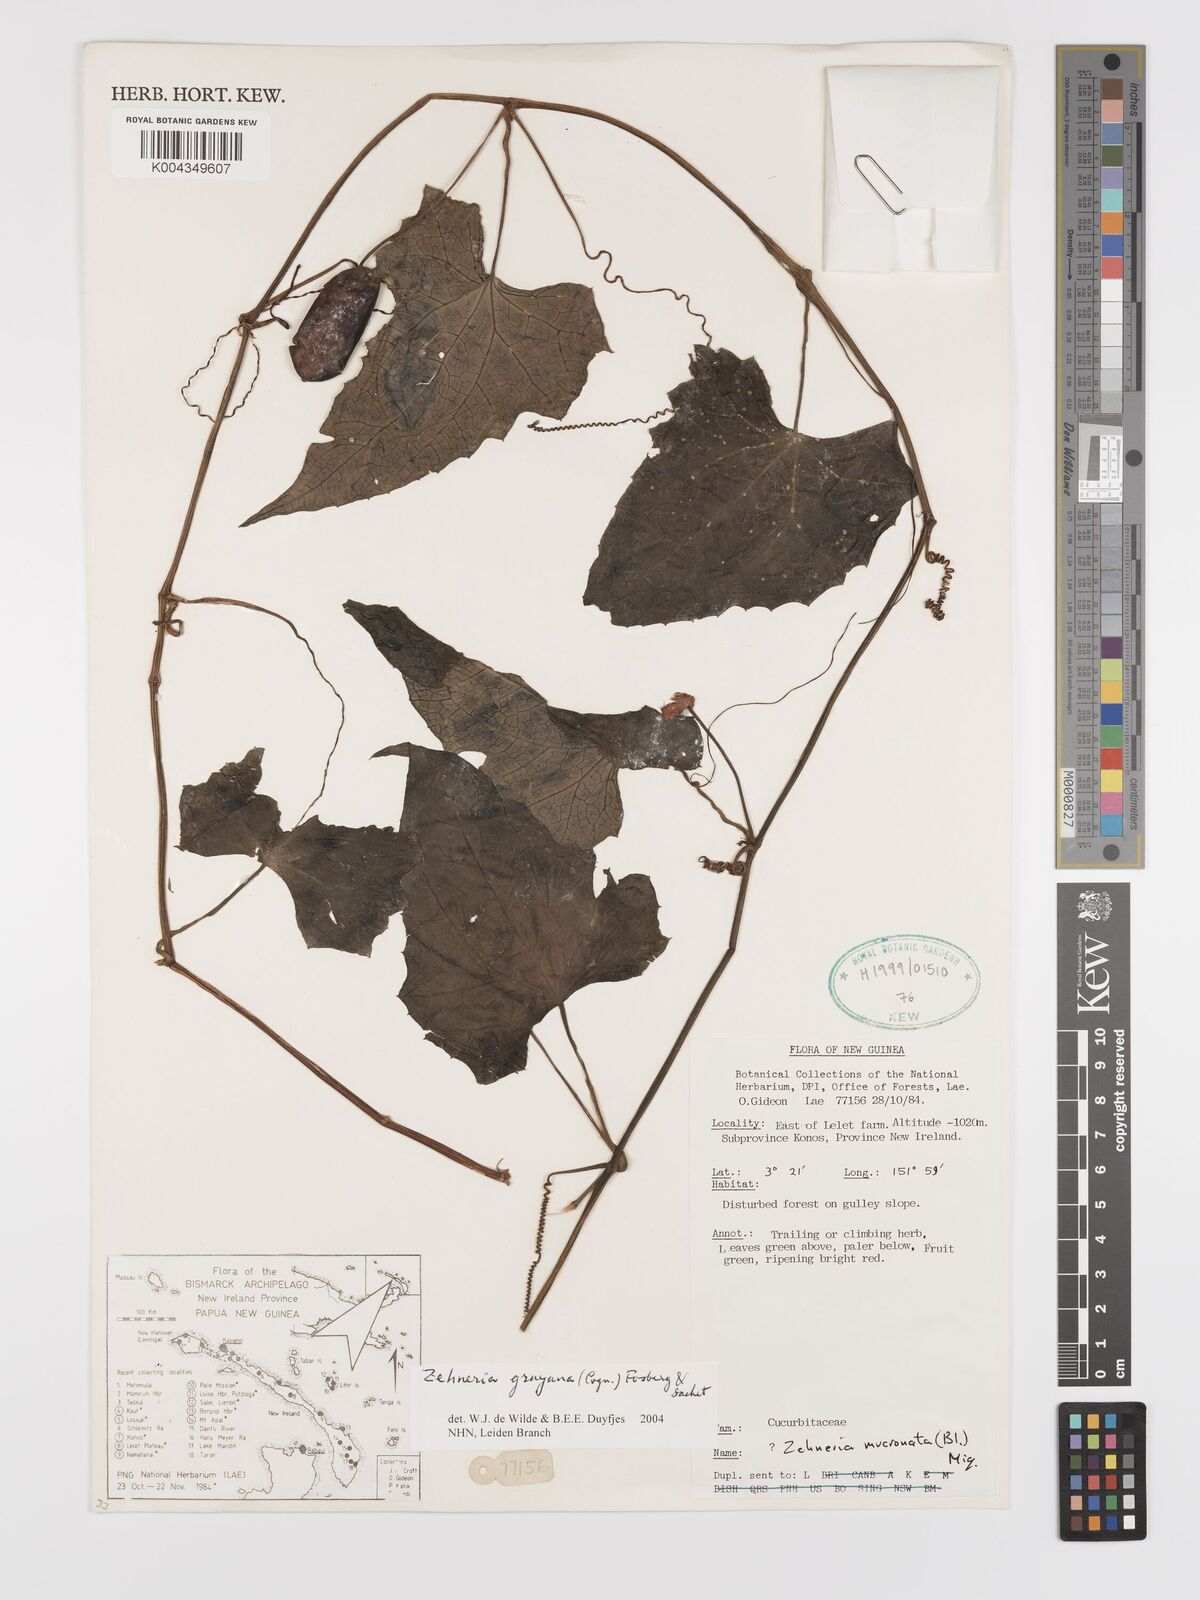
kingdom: Plantae
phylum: Tracheophyta
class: Magnoliopsida
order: Cucurbitales
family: Cucurbitaceae
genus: Zehneria
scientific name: Zehneria mucronata
